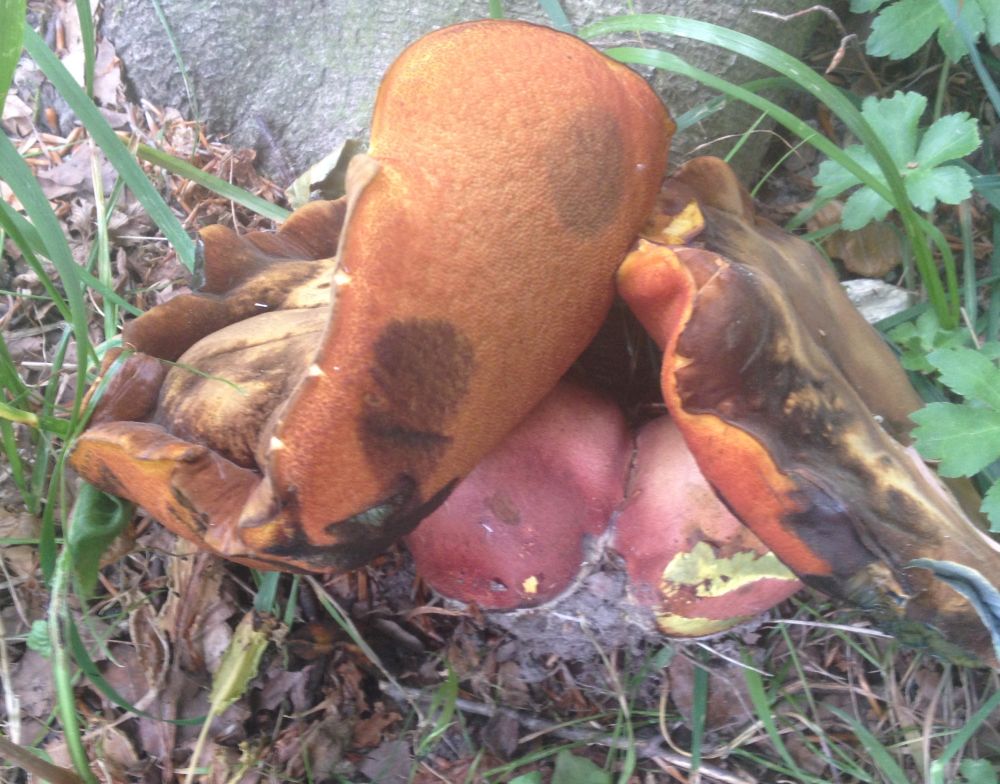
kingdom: Fungi
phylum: Basidiomycota
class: Agaricomycetes
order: Boletales
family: Boletaceae
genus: Neoboletus
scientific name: Neoboletus erythropus
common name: punktstokket indigorørhat
